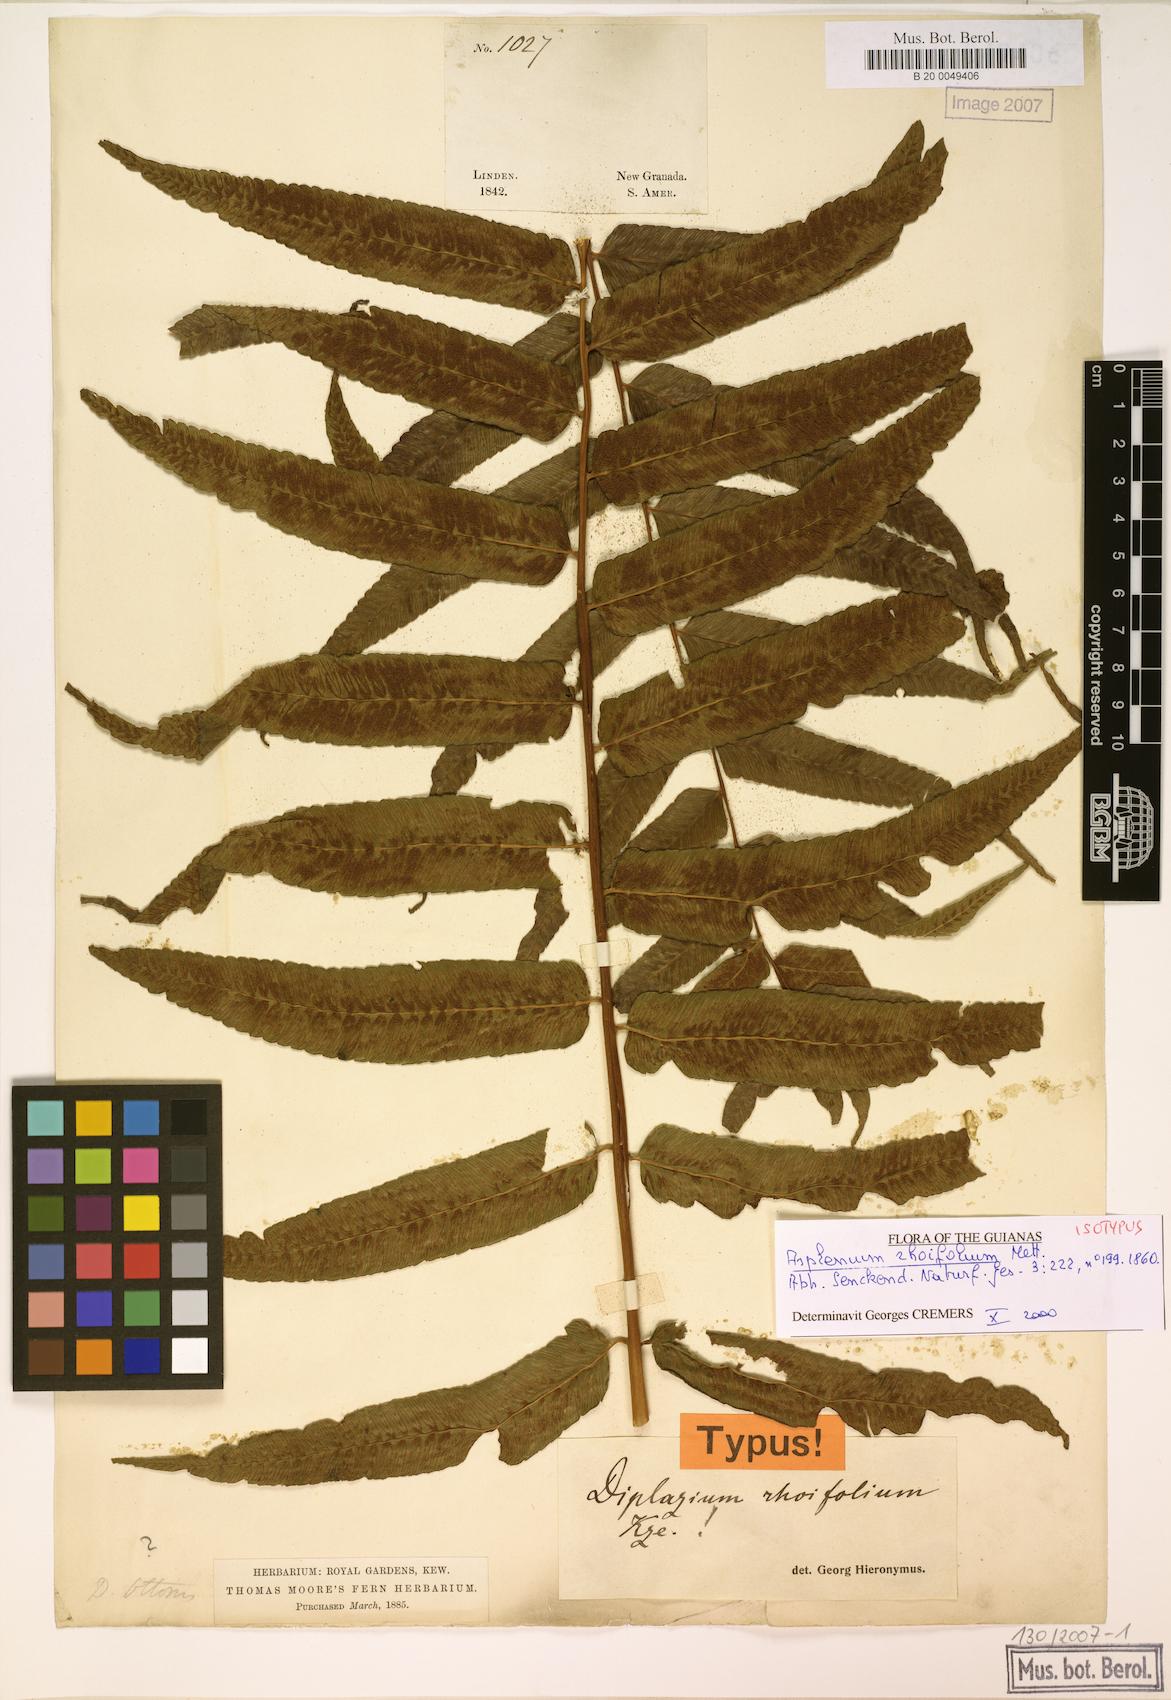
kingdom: Plantae
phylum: Tracheophyta
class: Polypodiopsida
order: Polypodiales
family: Athyriaceae
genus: Diplazium
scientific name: Diplazium rhoifolium
